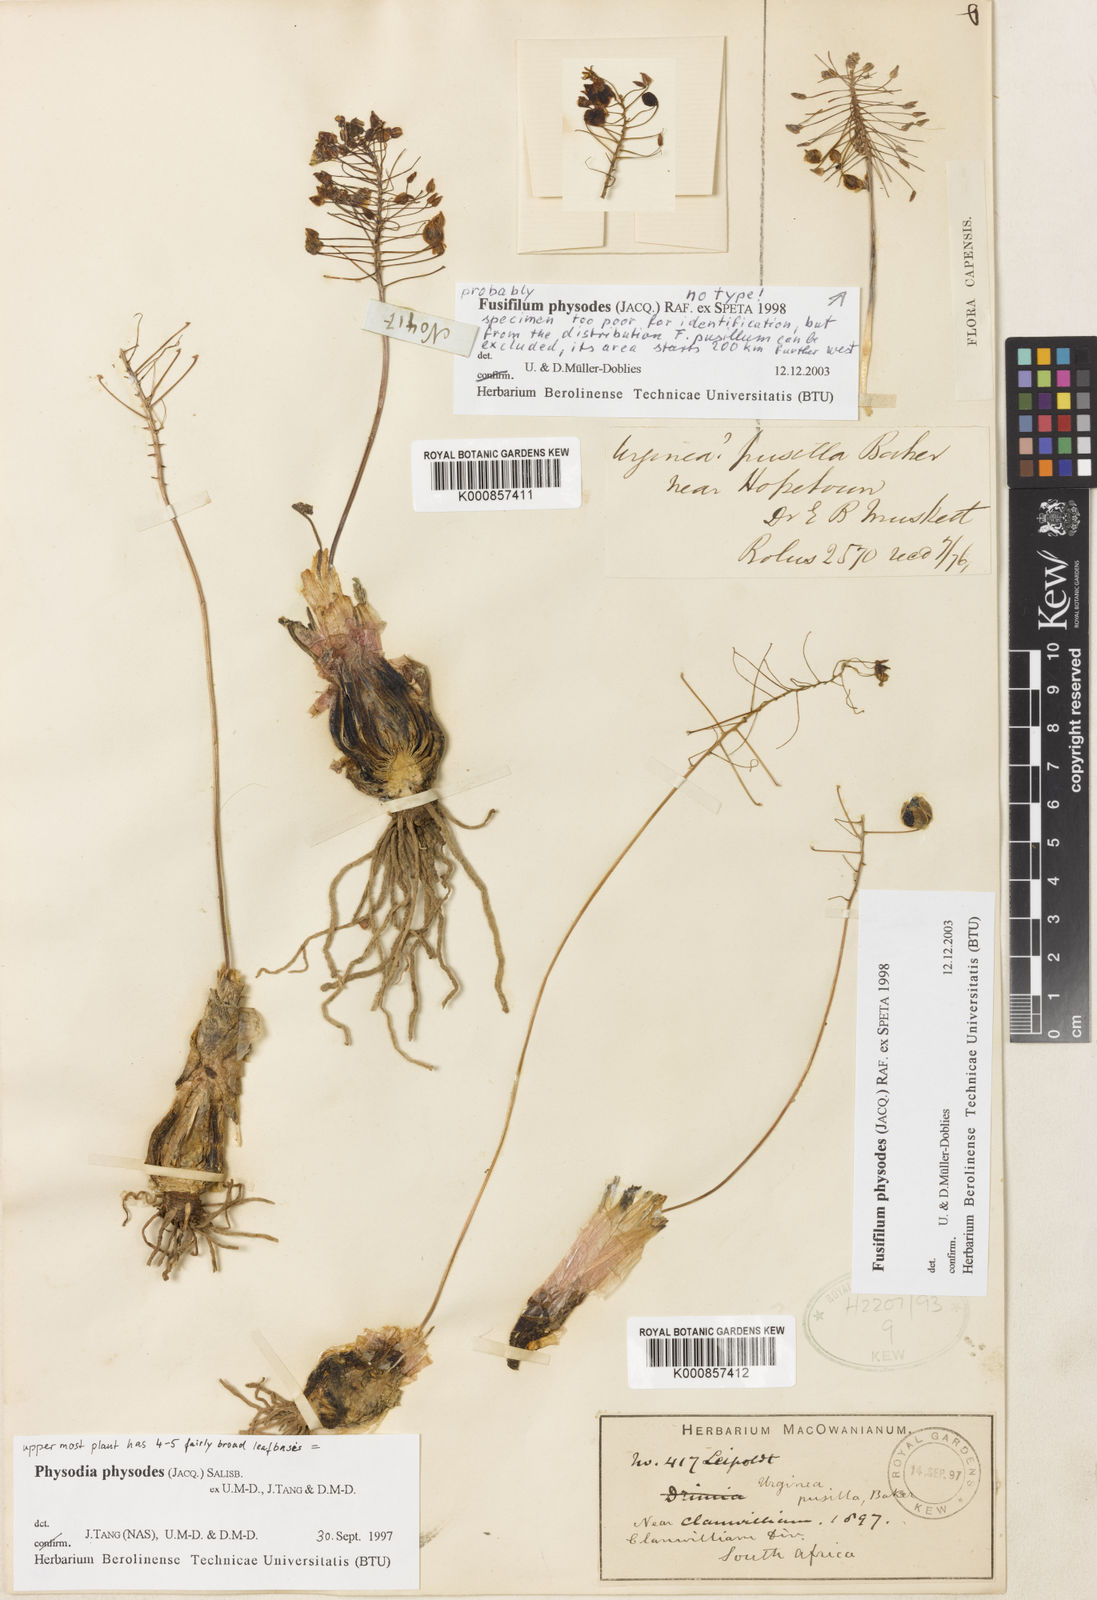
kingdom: Plantae
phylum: Tracheophyta
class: Liliopsida
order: Asparagales
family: Asparagaceae
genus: Fusifilum
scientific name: Fusifilum physodes
